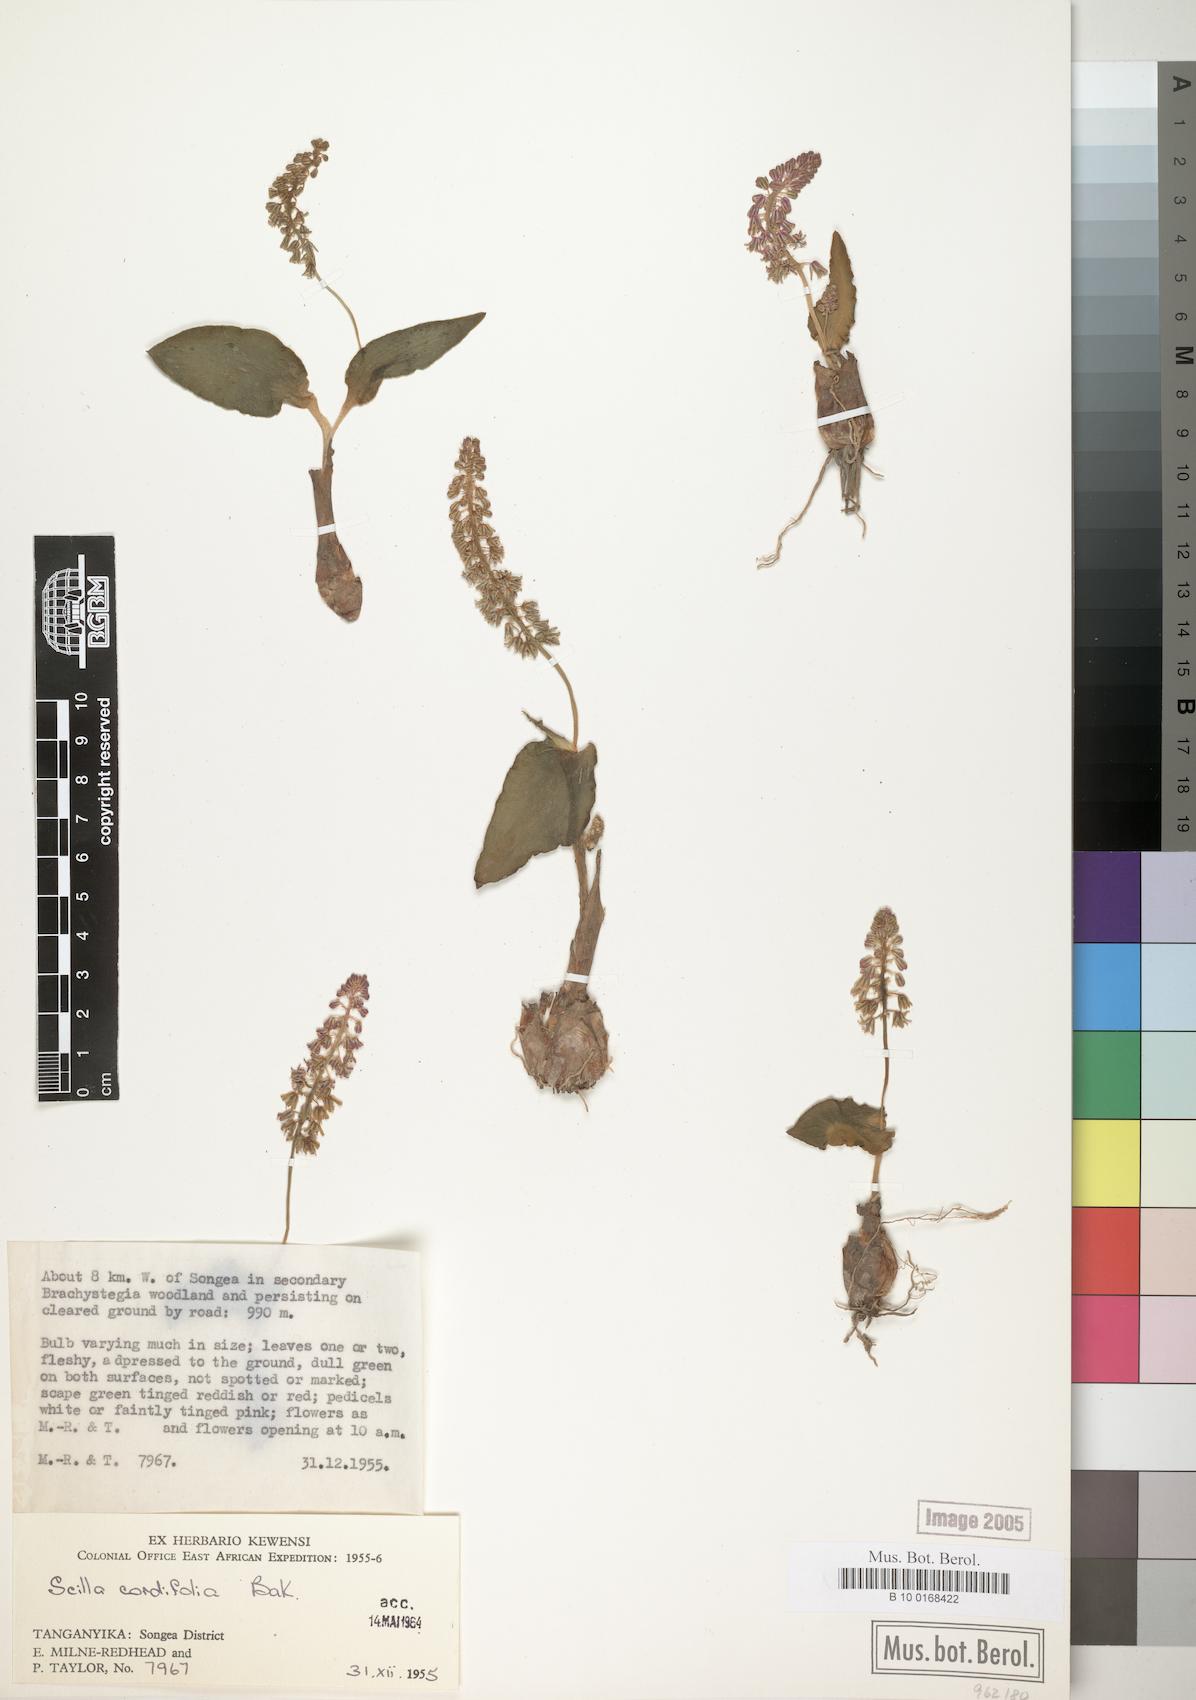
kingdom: Plantae
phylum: Tracheophyta
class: Liliopsida
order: Asparagales
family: Asparagaceae
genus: Ledebouria
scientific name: Ledebouria cordifolia
